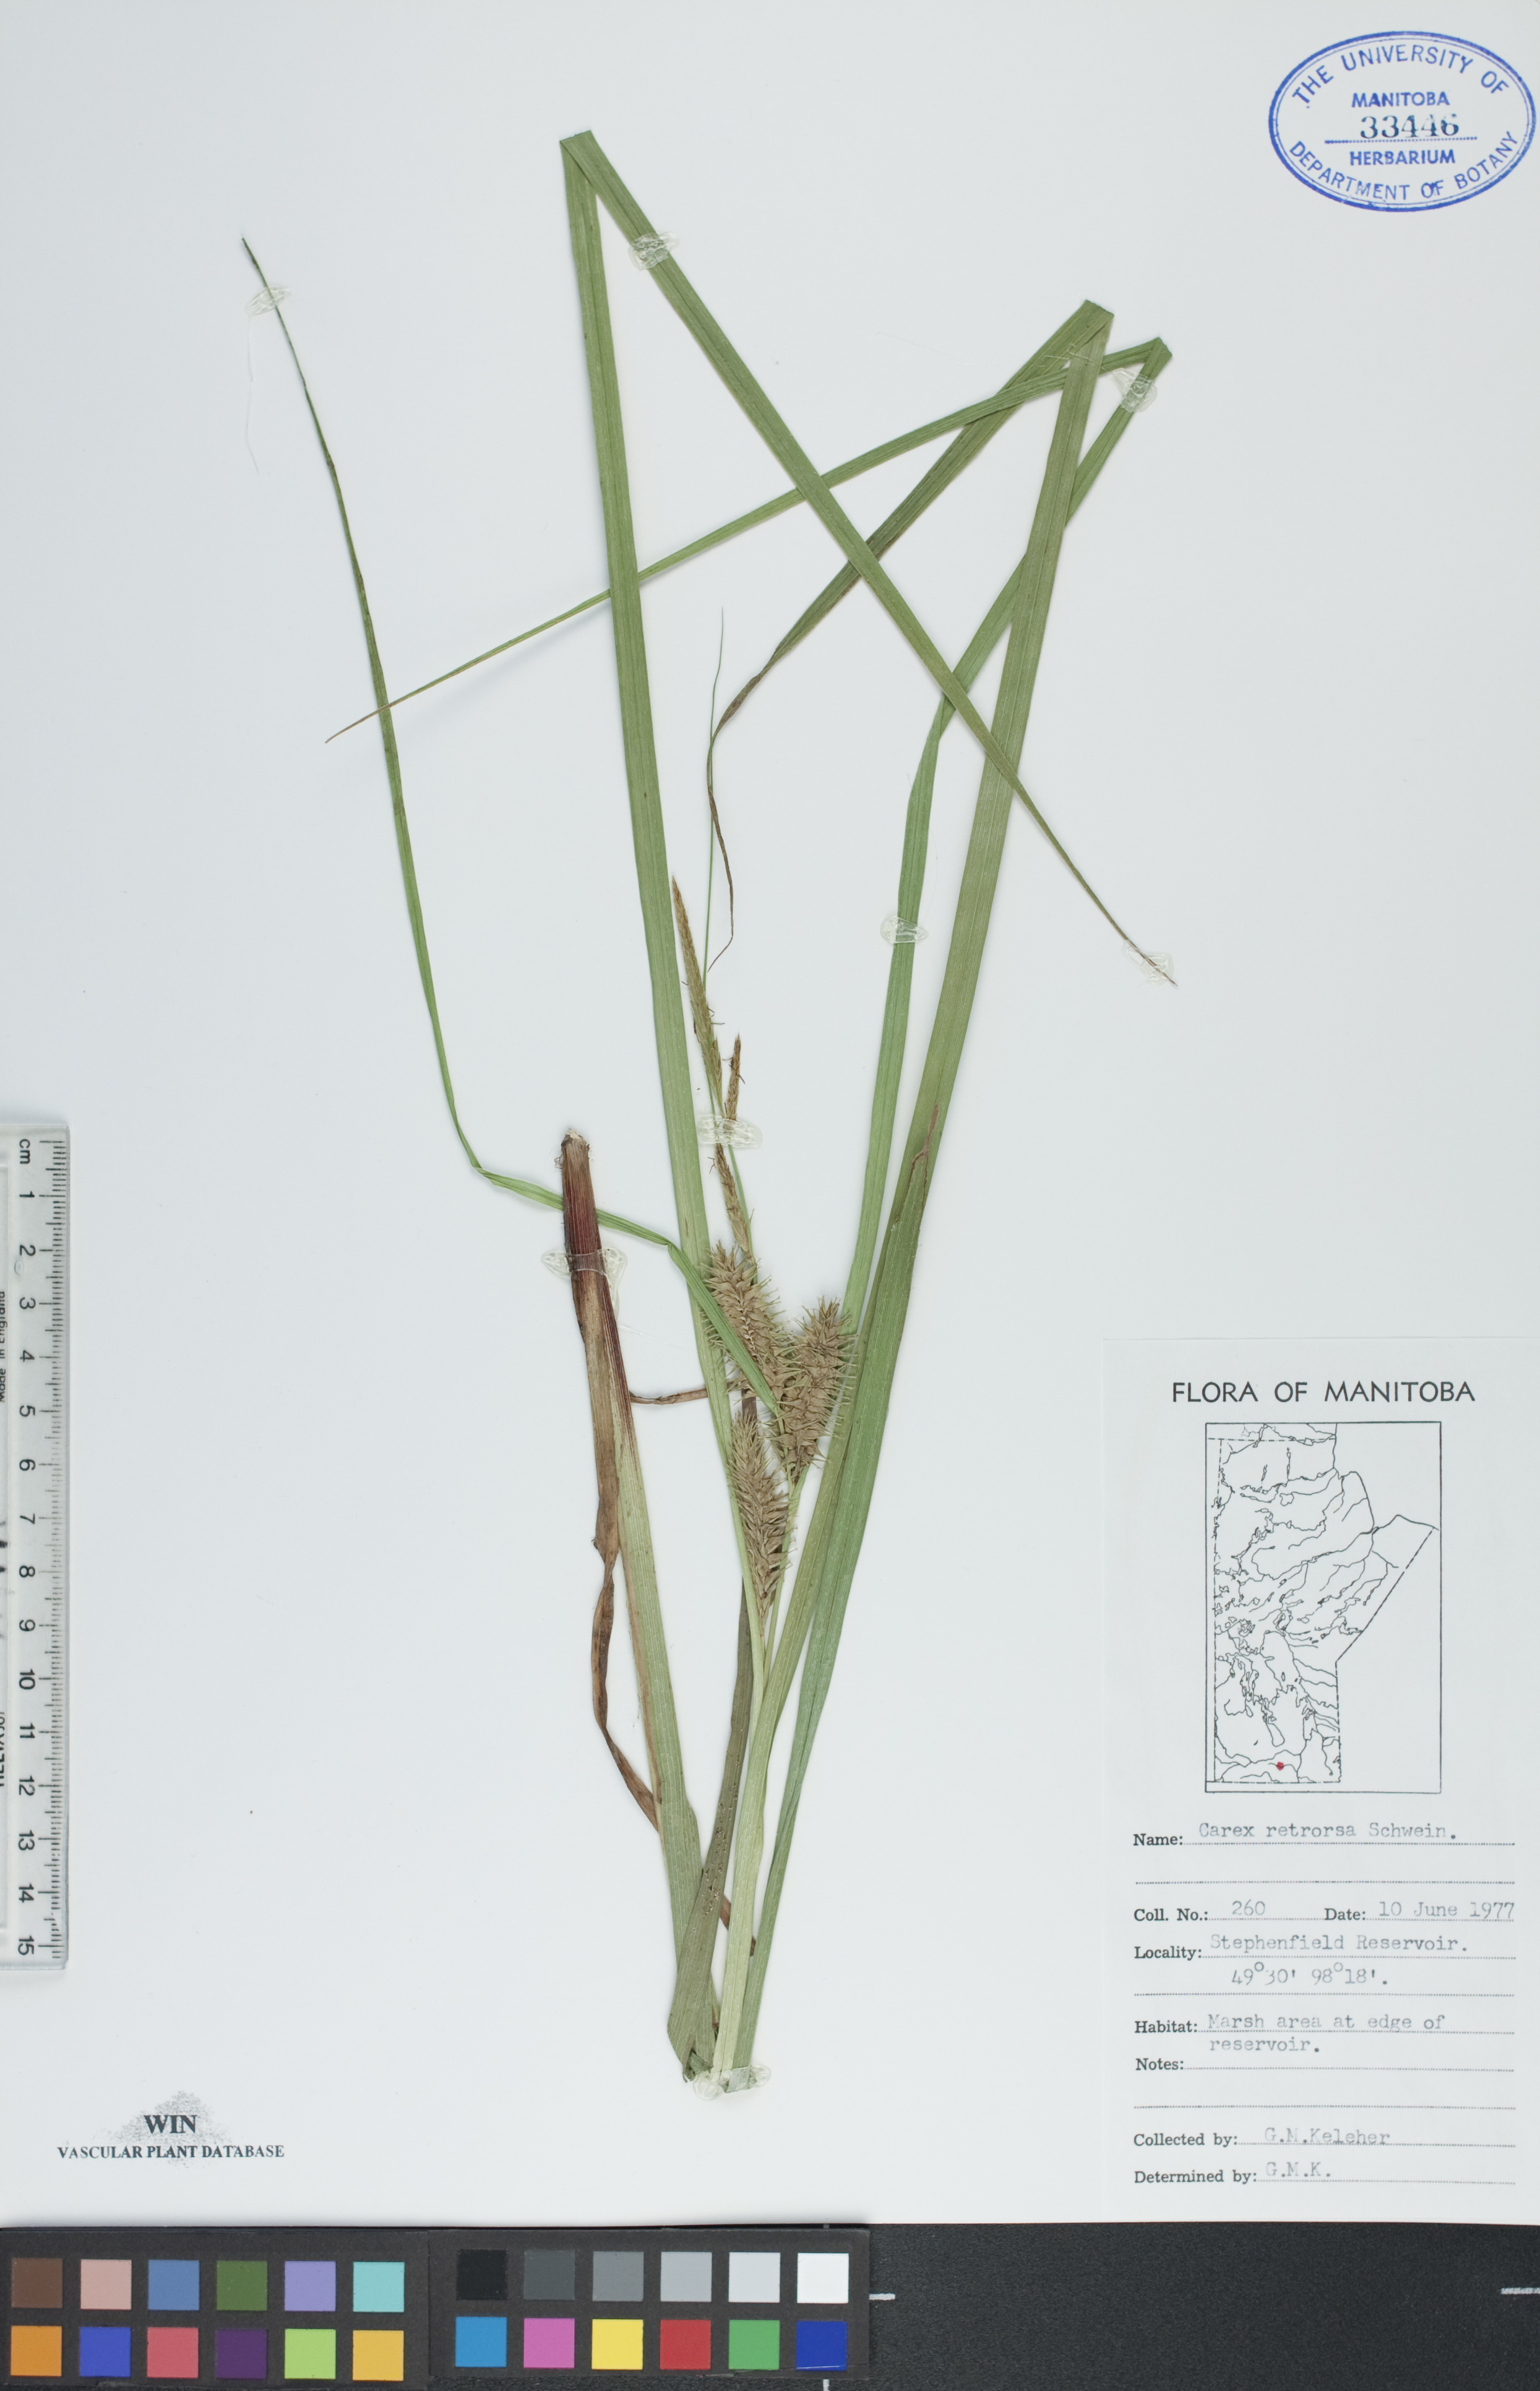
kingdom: Plantae
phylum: Tracheophyta
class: Liliopsida
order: Poales
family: Cyperaceae
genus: Carex
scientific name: Carex retrorsa
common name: Knot-sheath sedge
